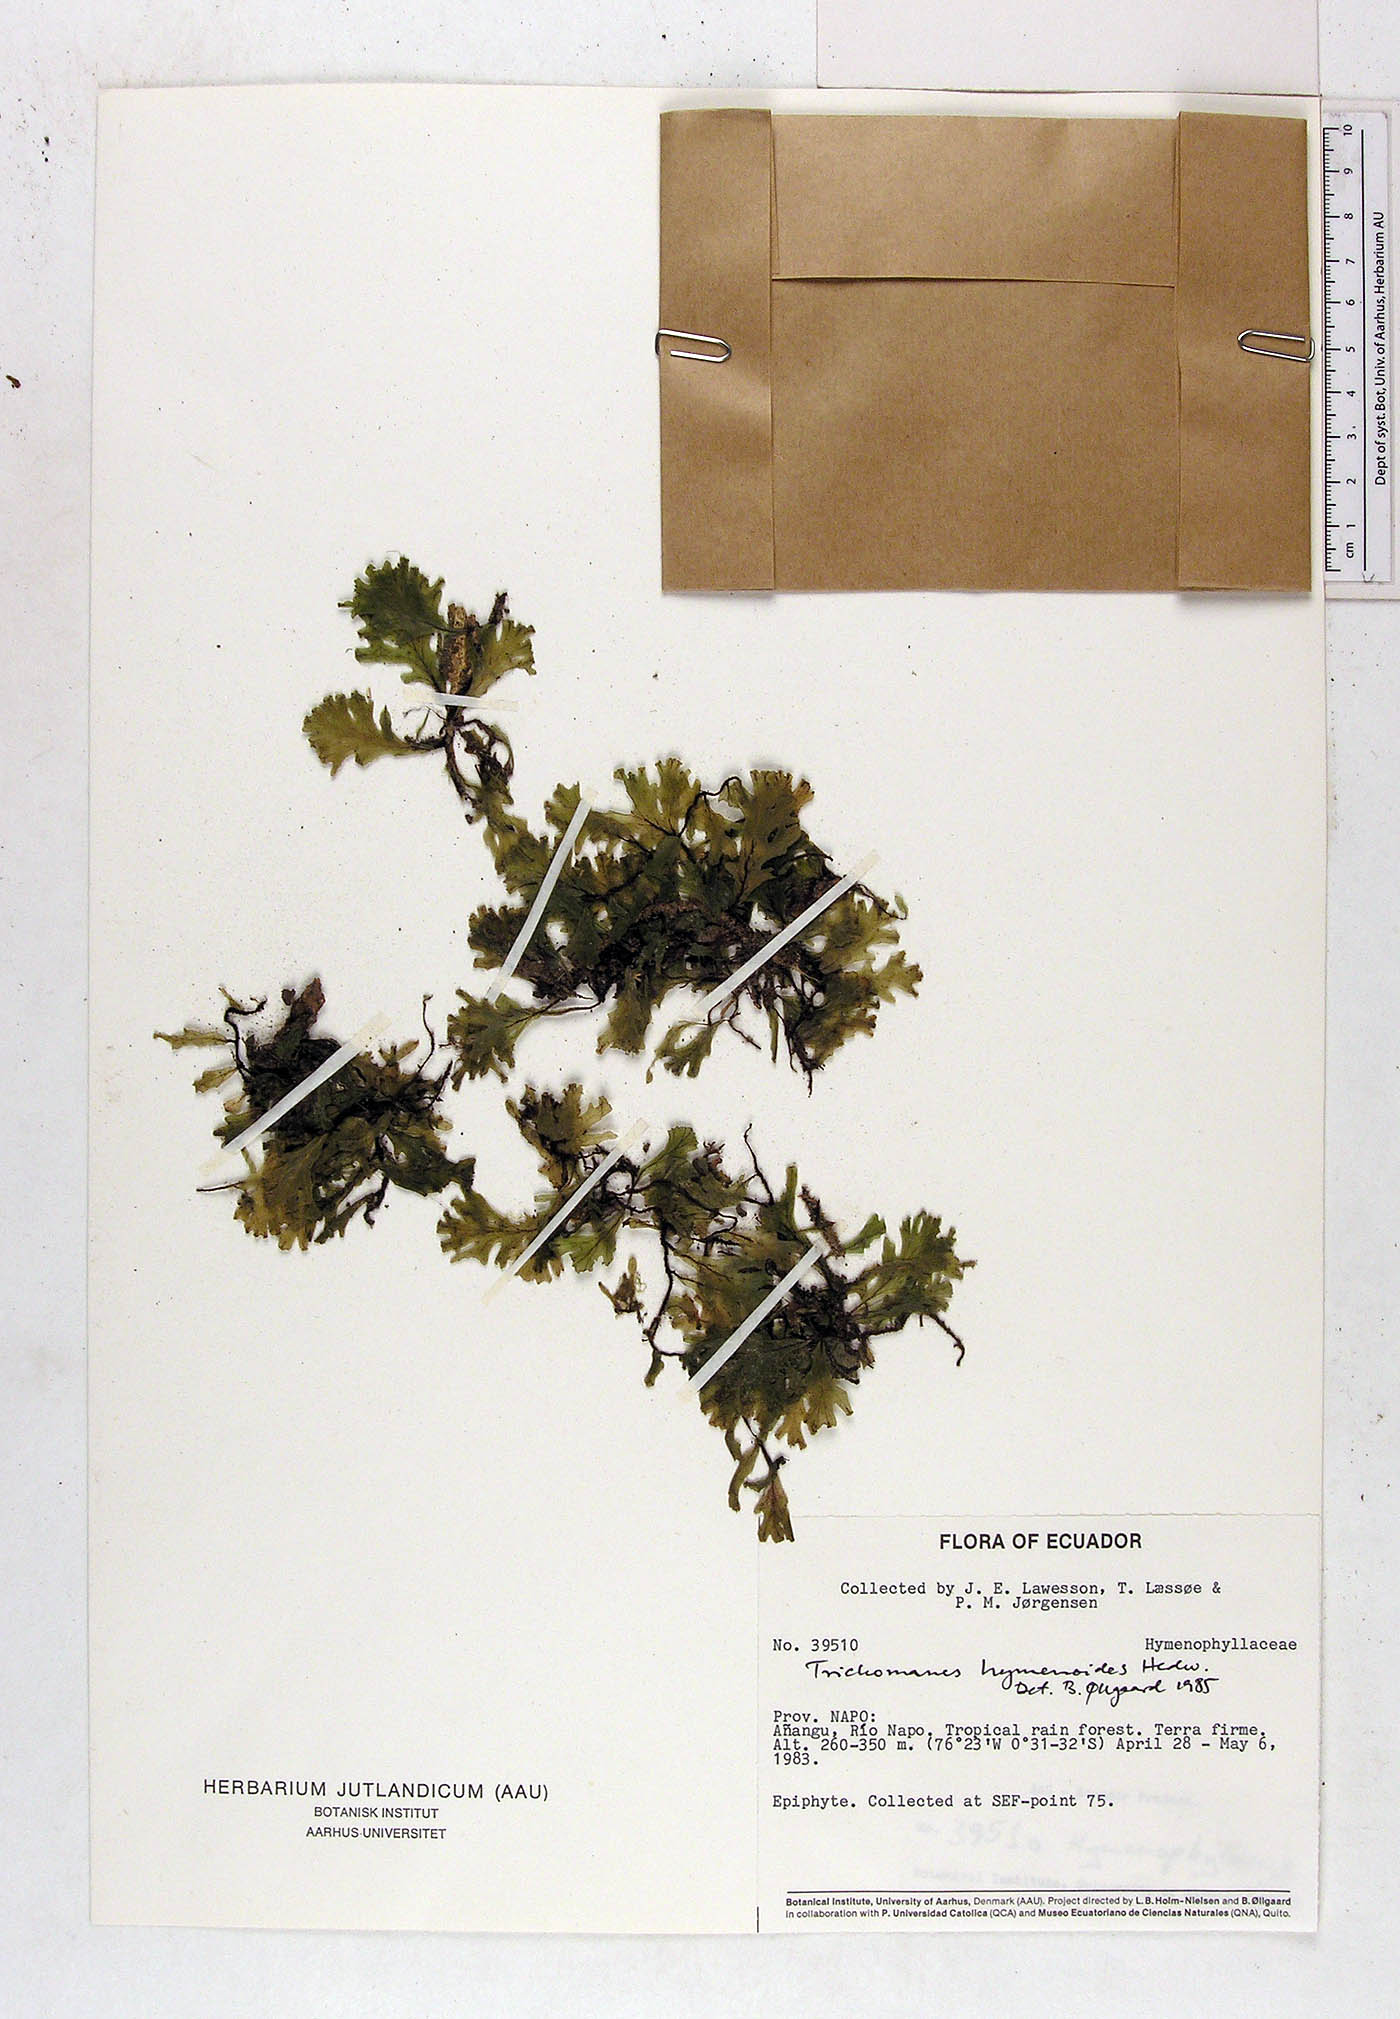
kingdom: Plantae
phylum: Tracheophyta
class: Polypodiopsida
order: Hymenophyllales
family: Hymenophyllaceae
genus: Didymoglossum
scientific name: Didymoglossum hymenoides
